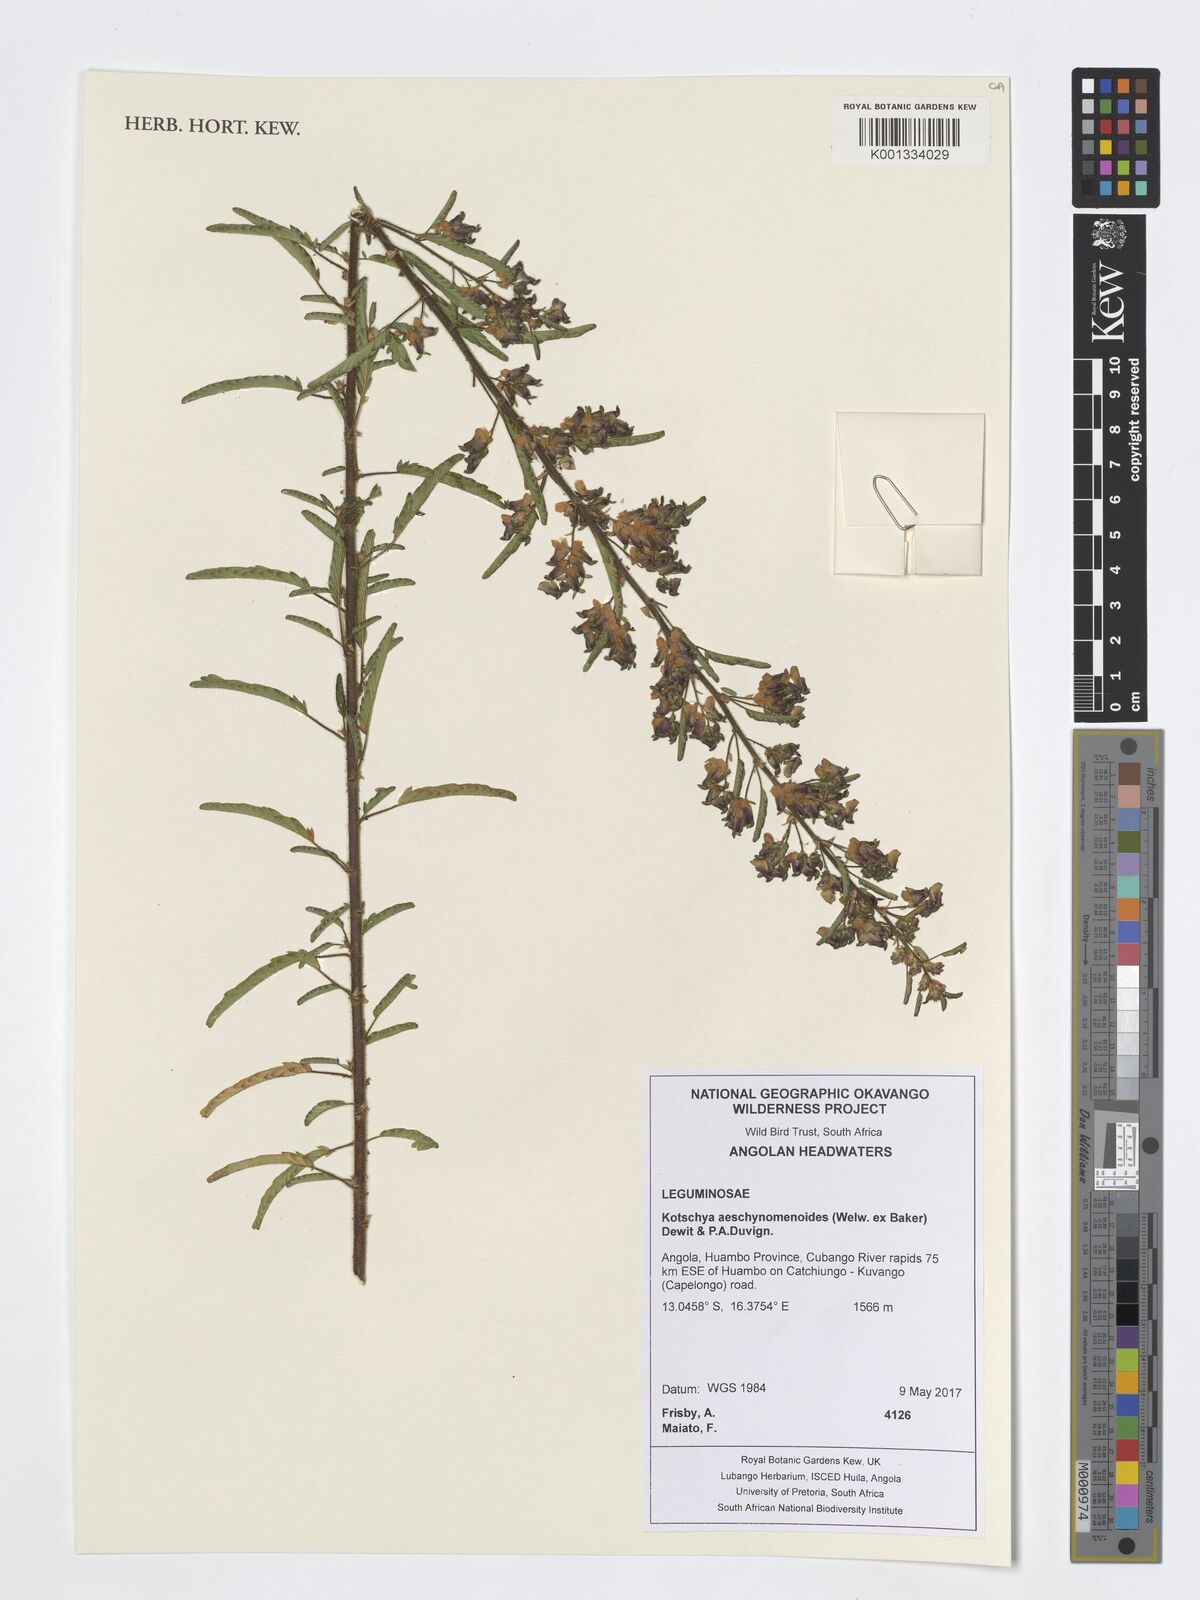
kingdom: Plantae
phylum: Tracheophyta
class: Magnoliopsida
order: Fabales
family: Fabaceae
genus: Kotschya
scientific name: Kotschya aeschynomenoides
